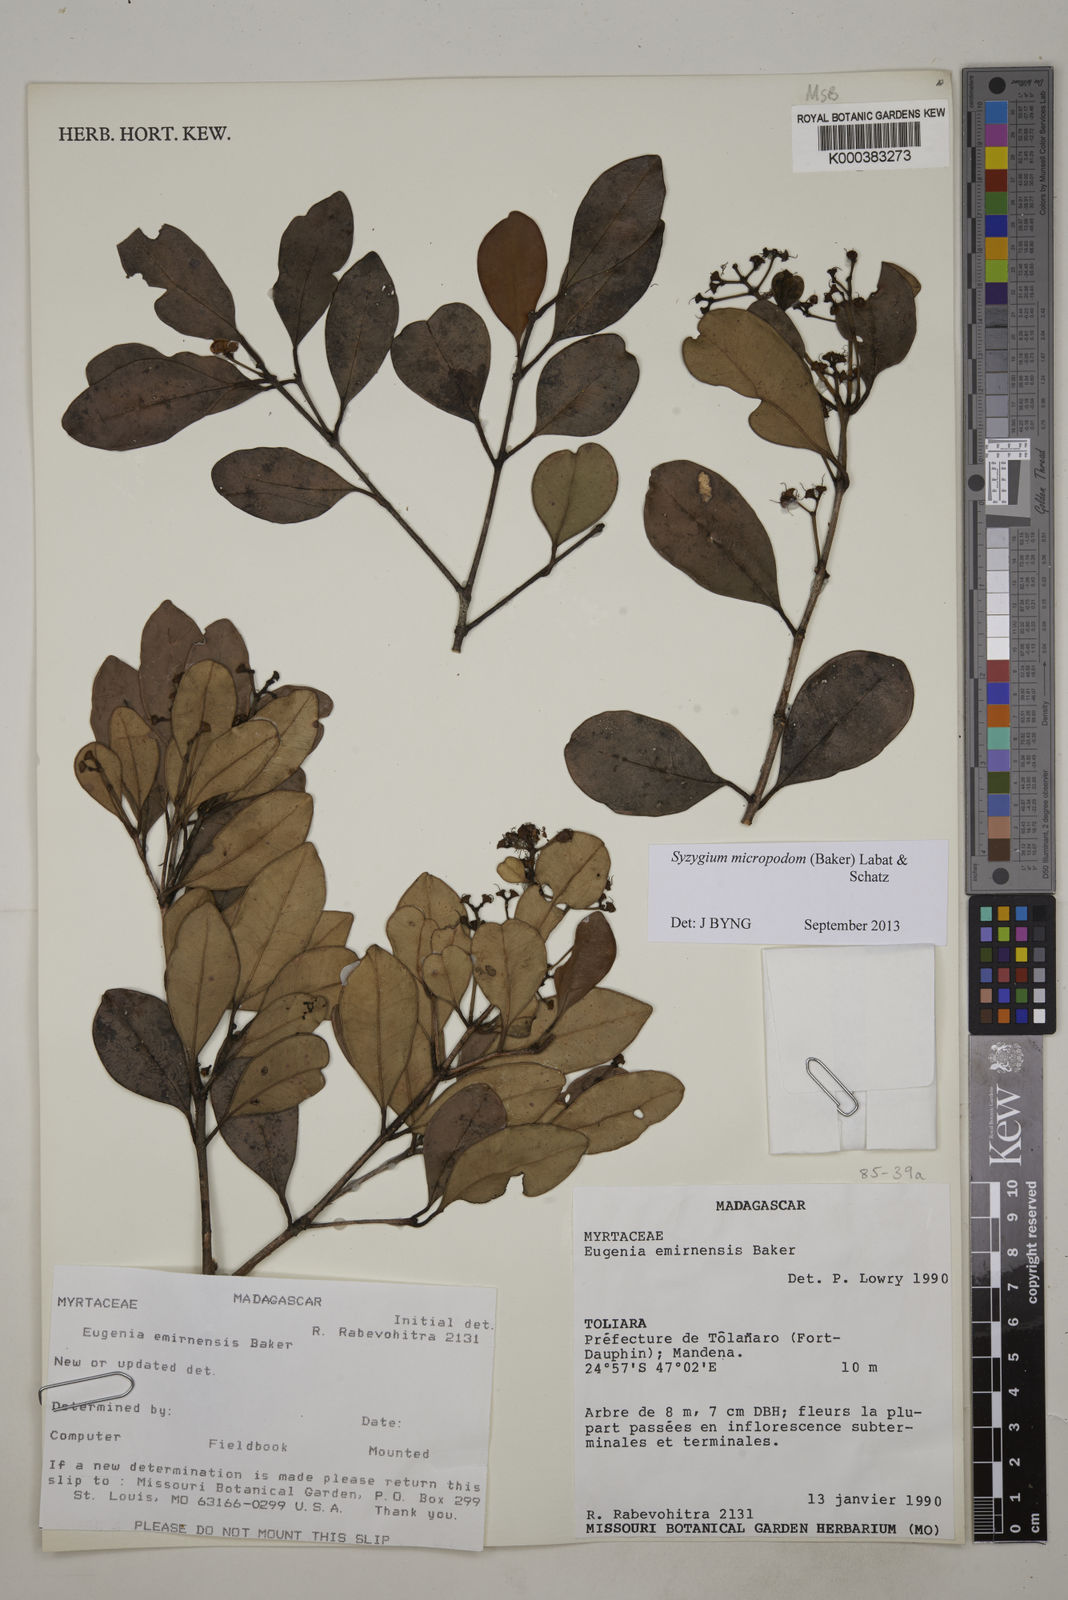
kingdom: Plantae
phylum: Tracheophyta
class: Magnoliopsida
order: Myrtales
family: Myrtaceae
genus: Syzygium
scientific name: Syzygium emirnense
